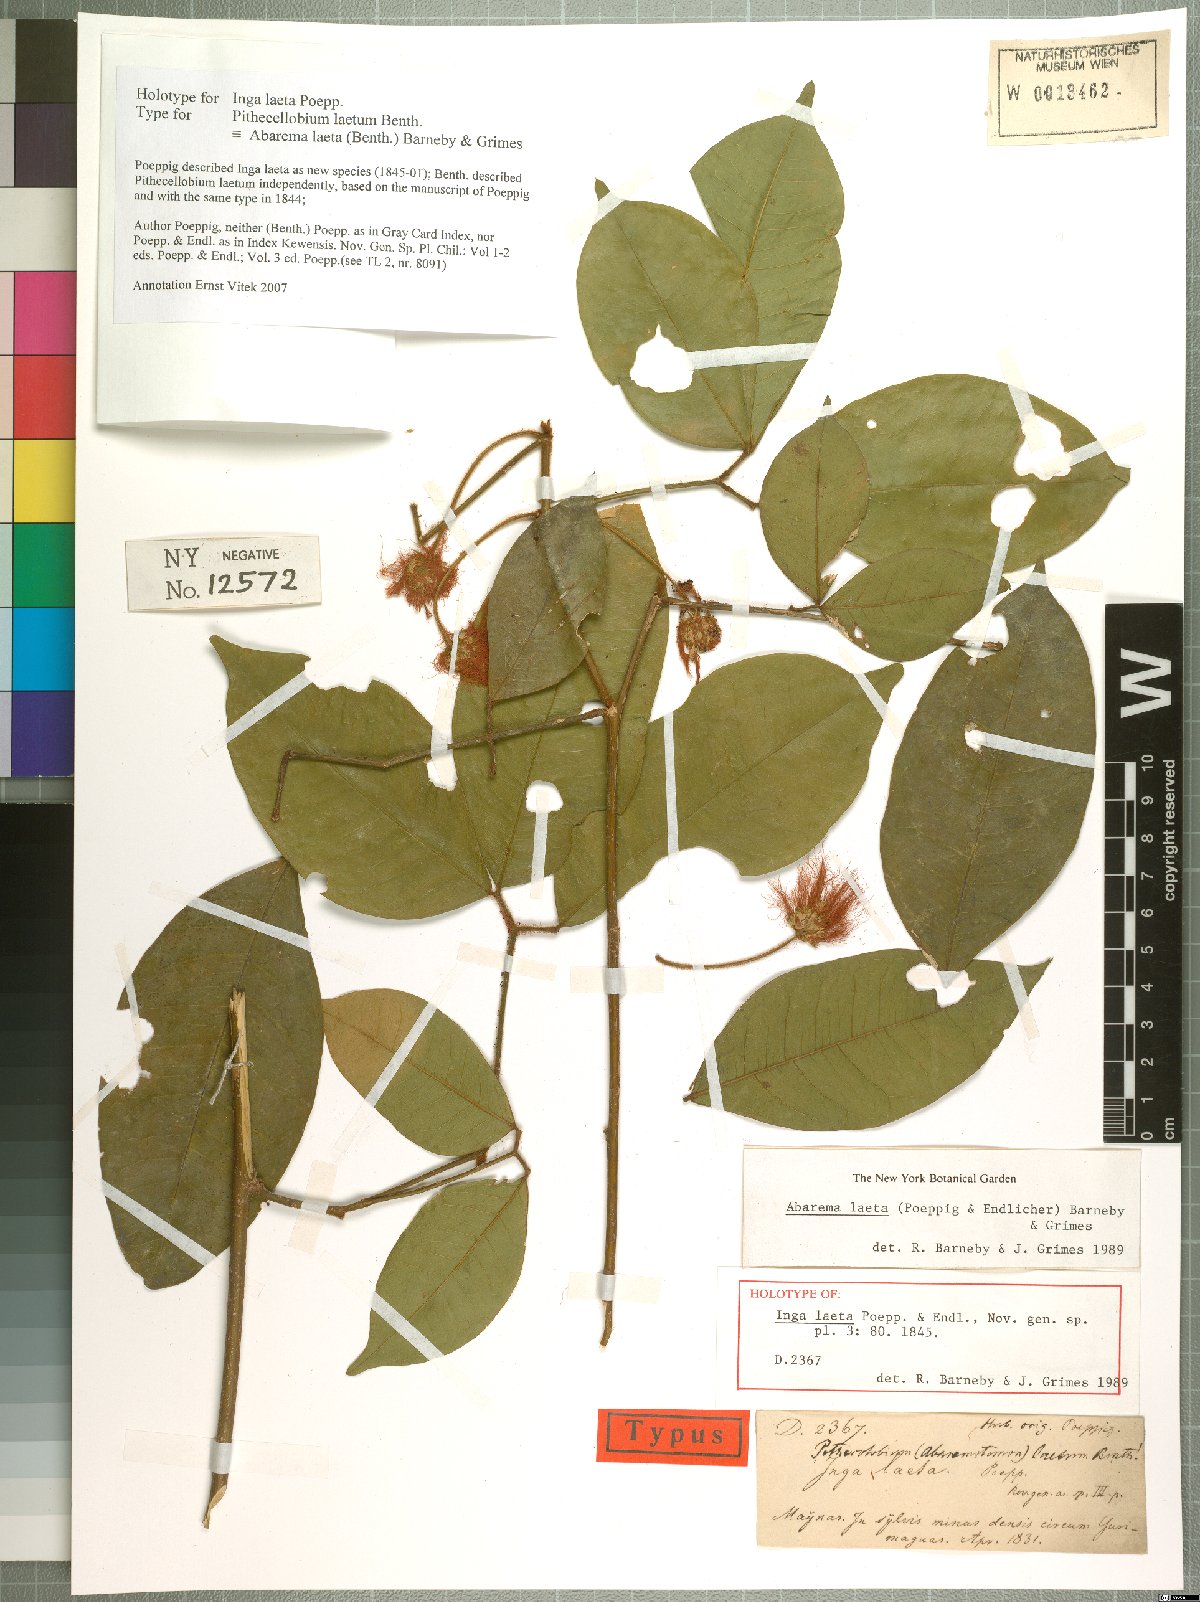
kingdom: Plantae
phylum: Tracheophyta
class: Magnoliopsida
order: Fabales
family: Fabaceae
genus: Jupunba
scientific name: Jupunba laeta
